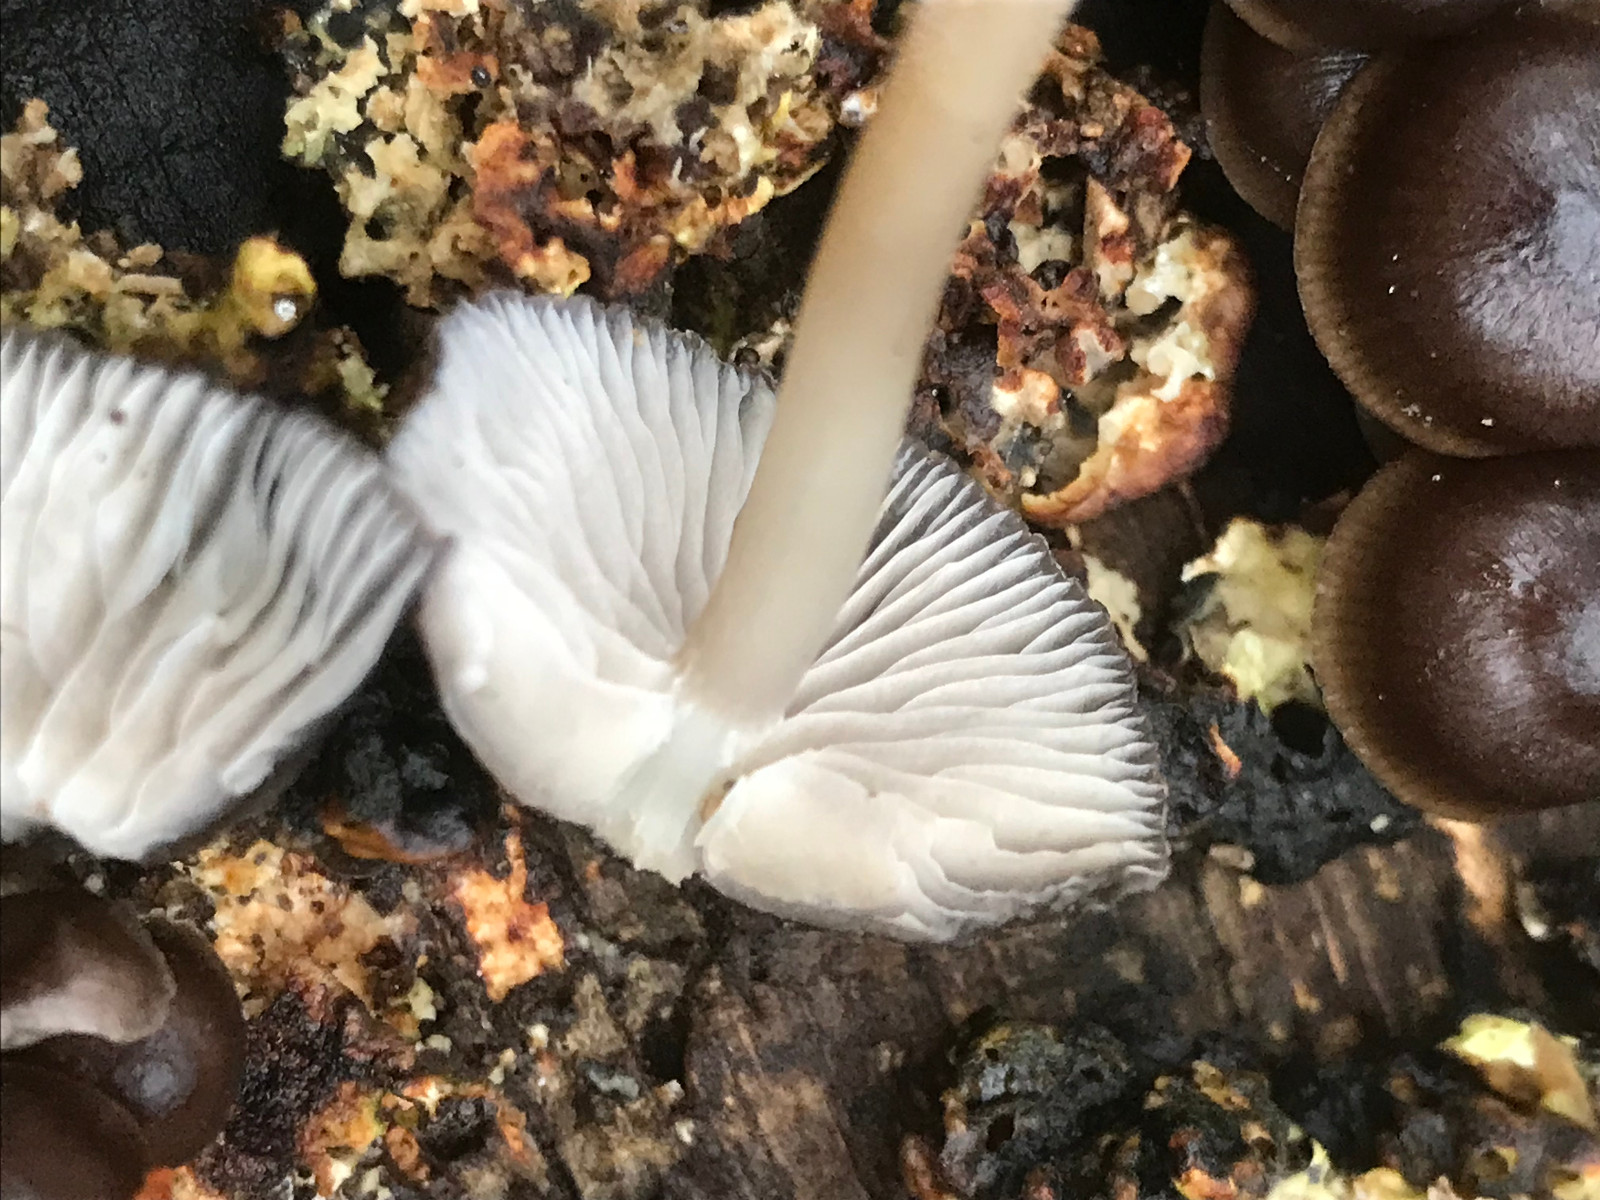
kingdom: Fungi
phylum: Basidiomycota
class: Agaricomycetes
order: Agaricales
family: Mycenaceae
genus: Mycena
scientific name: Mycena tintinnabulum
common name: vinter-huesvamp
